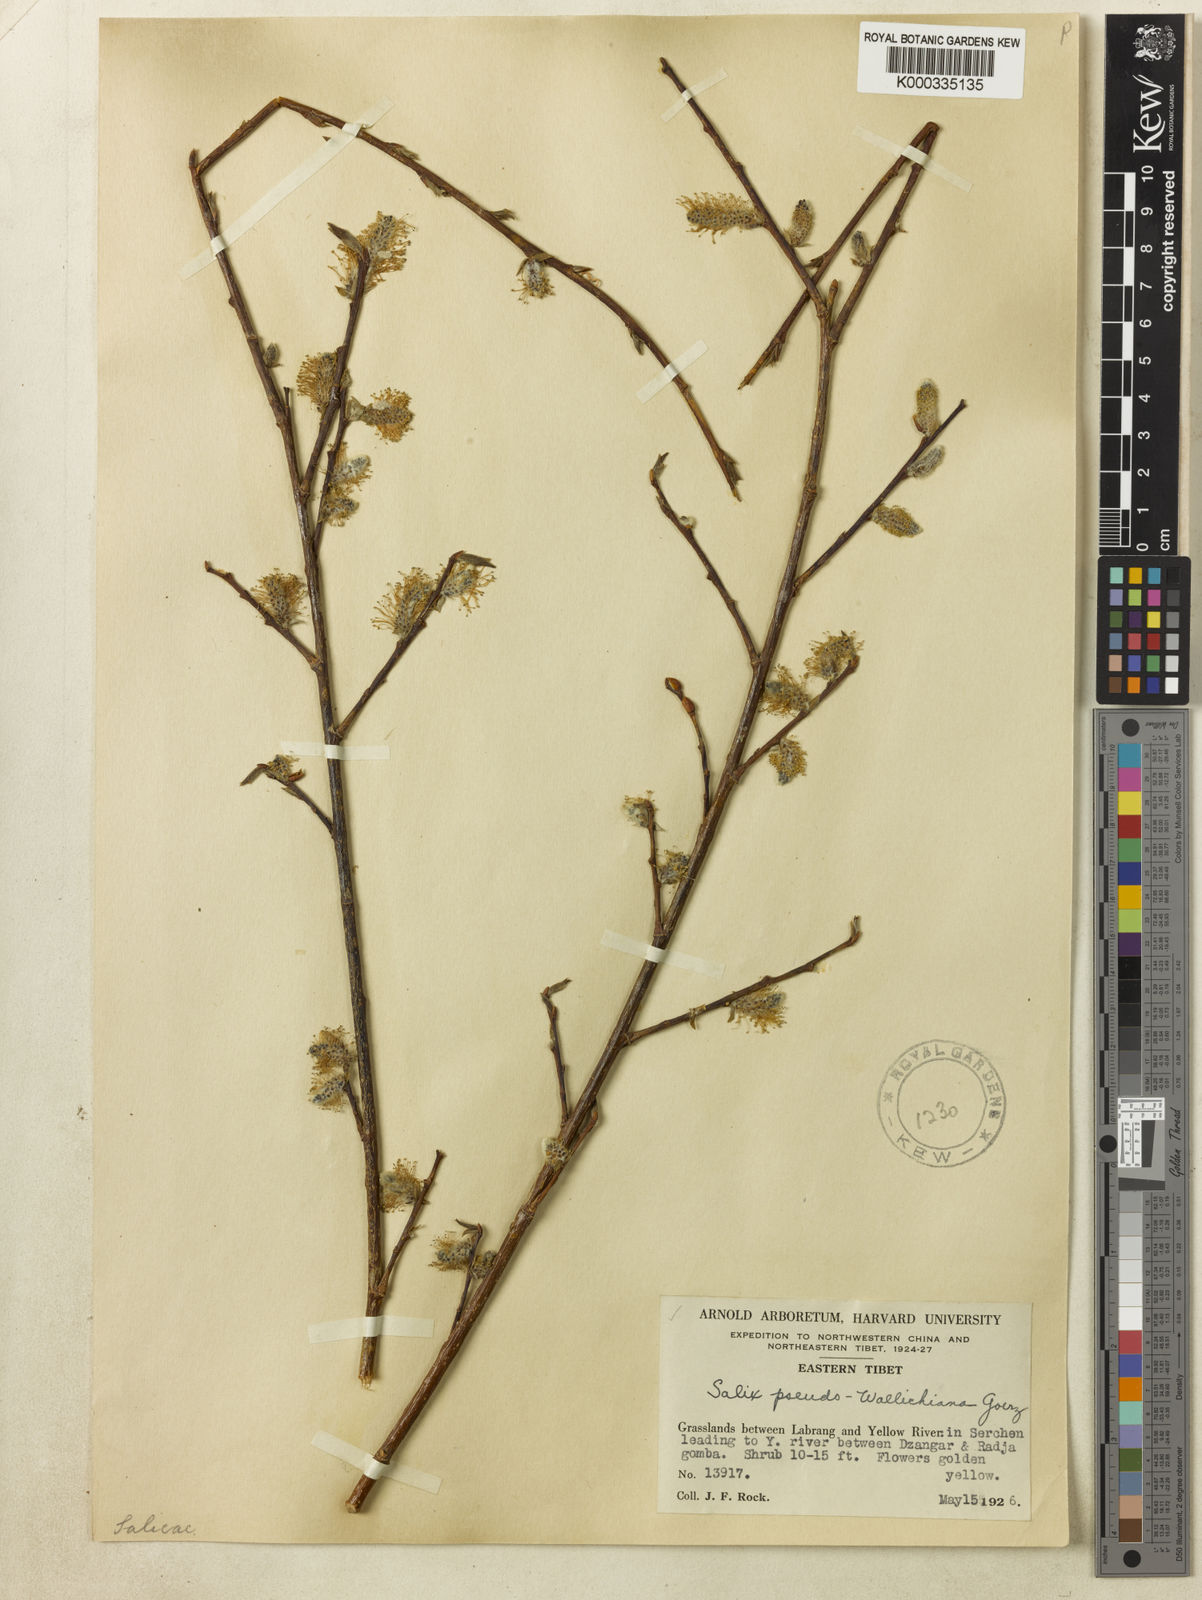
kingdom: Plantae
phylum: Tracheophyta
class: Magnoliopsida
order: Malpighiales
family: Salicaceae
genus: Salix
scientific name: Salix
